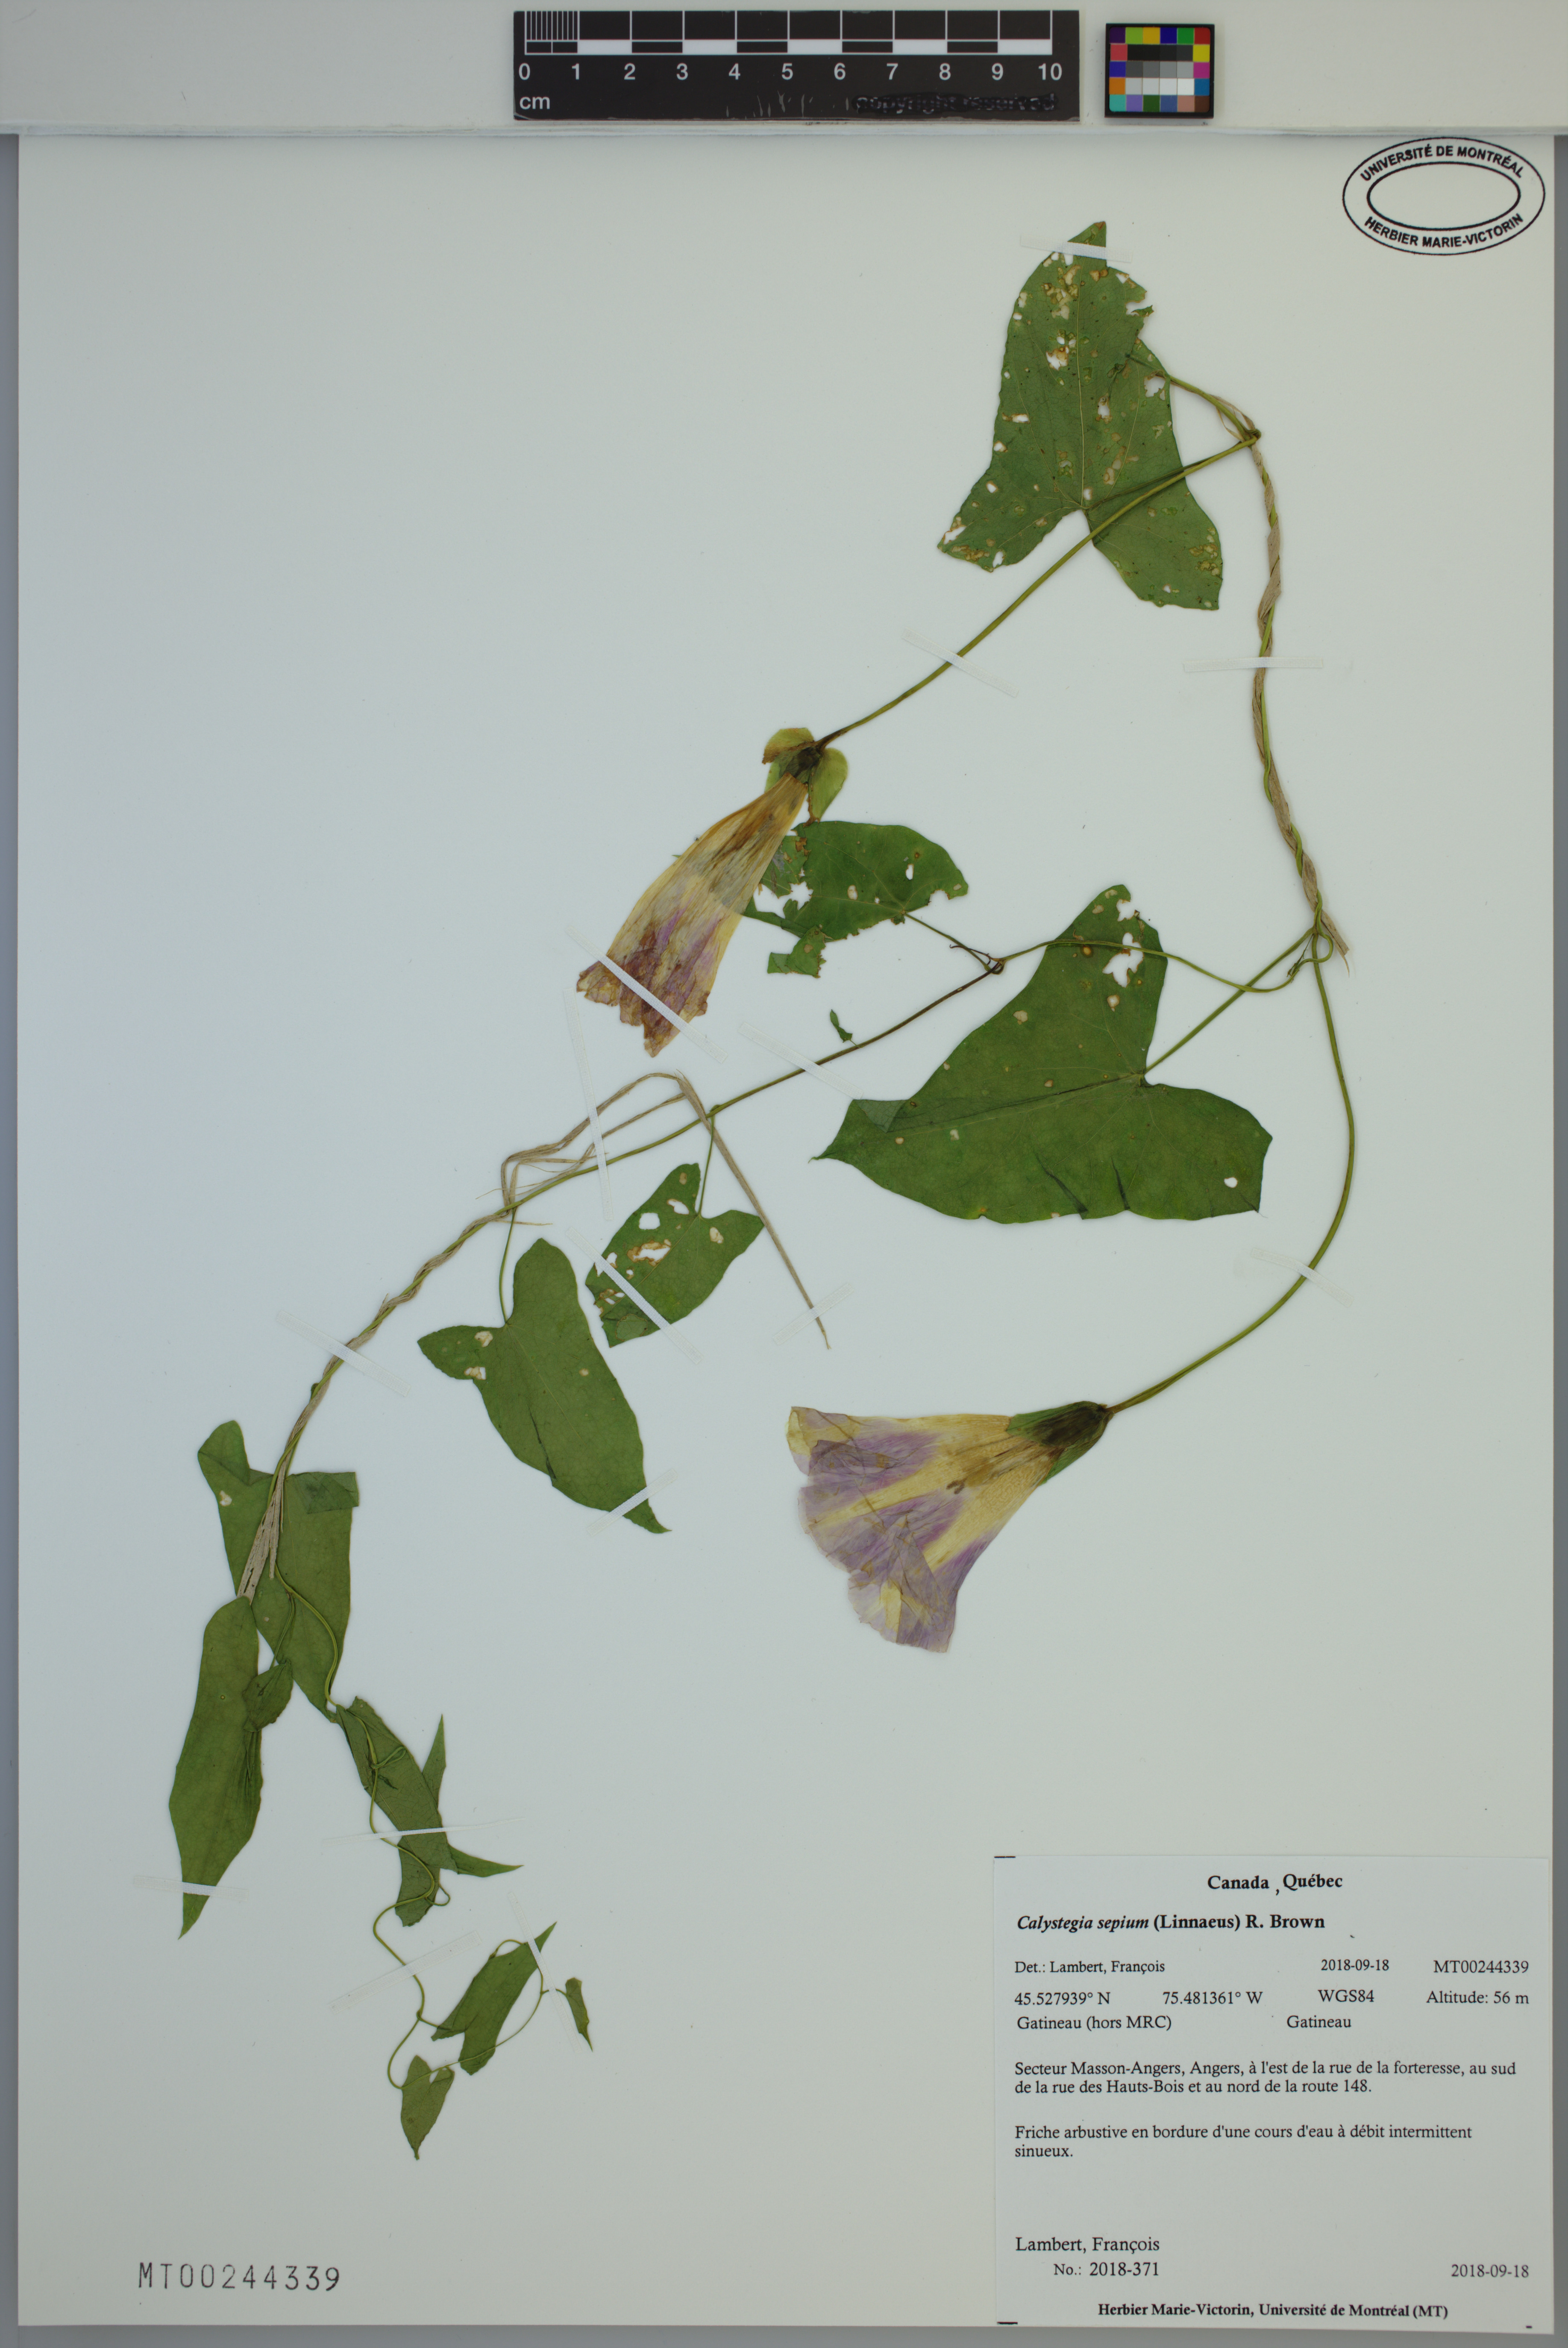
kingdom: Plantae
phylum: Tracheophyta
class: Magnoliopsida
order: Solanales
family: Convolvulaceae
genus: Calystegia
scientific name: Calystegia sepium
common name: Hedge bindweed
